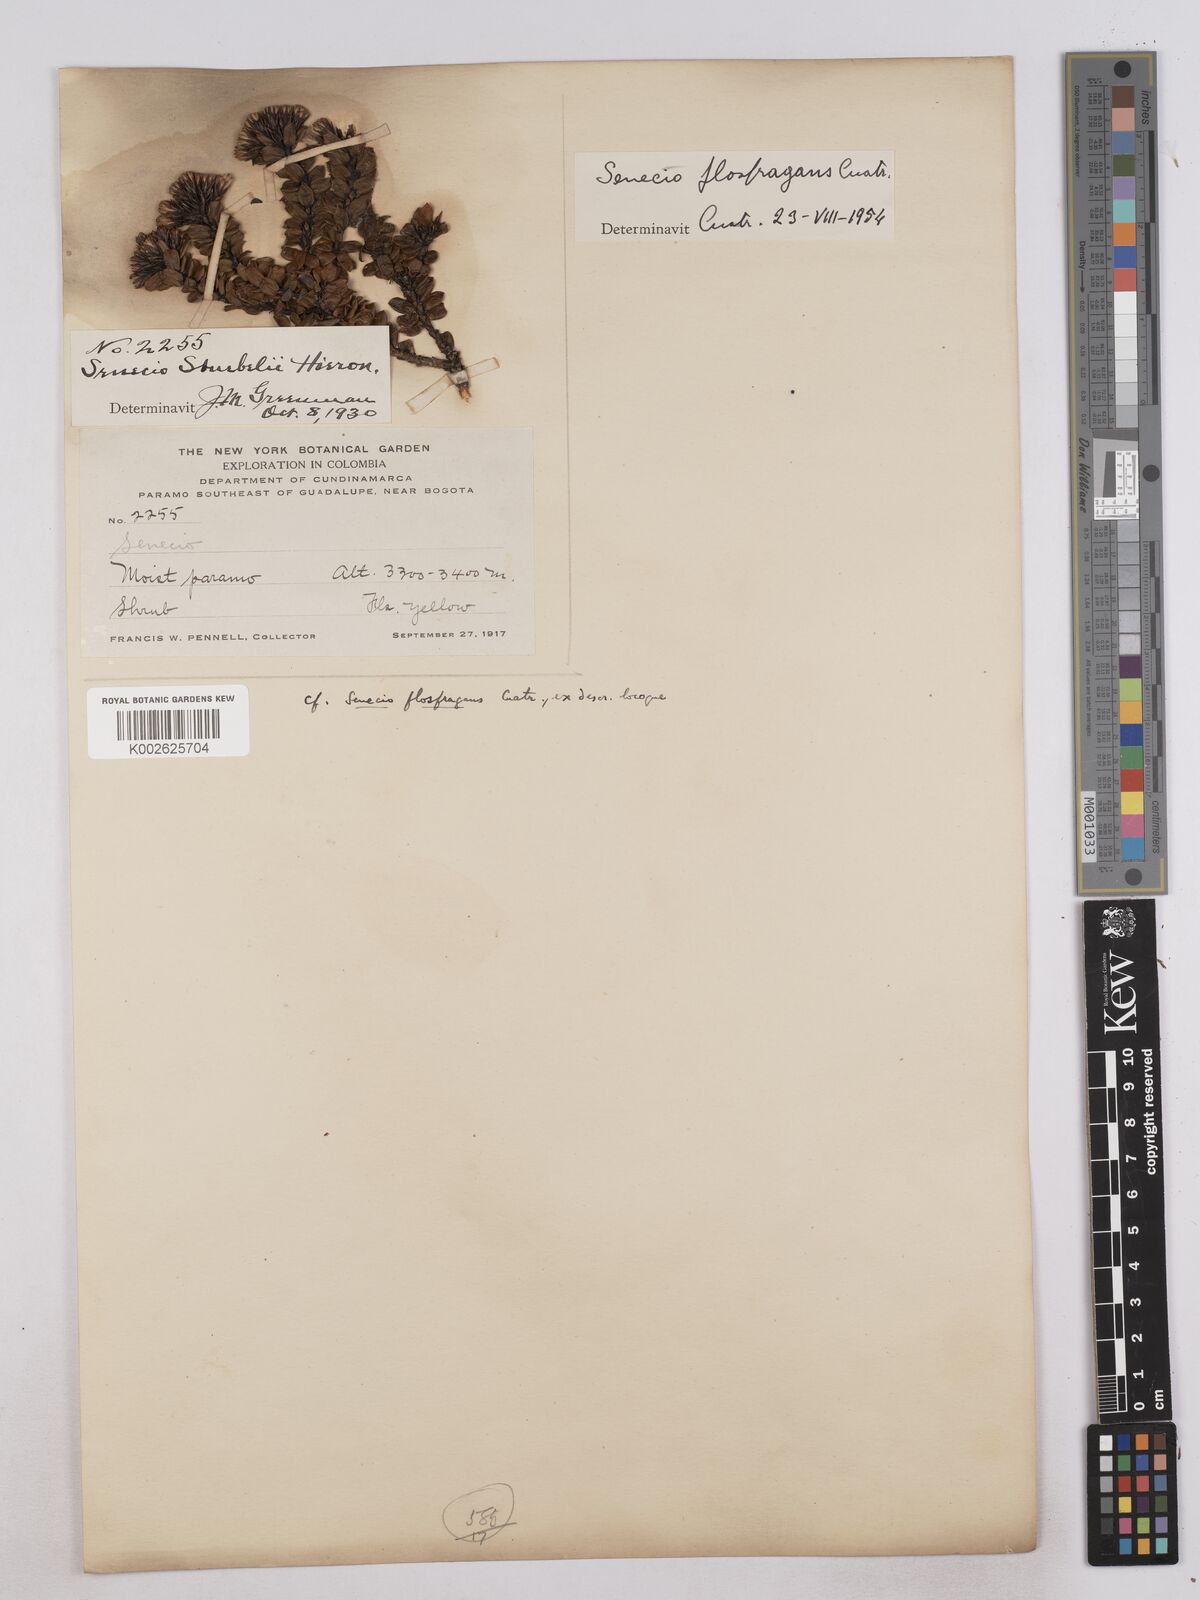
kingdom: Plantae
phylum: Tracheophyta
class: Magnoliopsida
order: Asterales
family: Asteraceae
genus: Monticalia
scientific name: Monticalia flosfragrans
